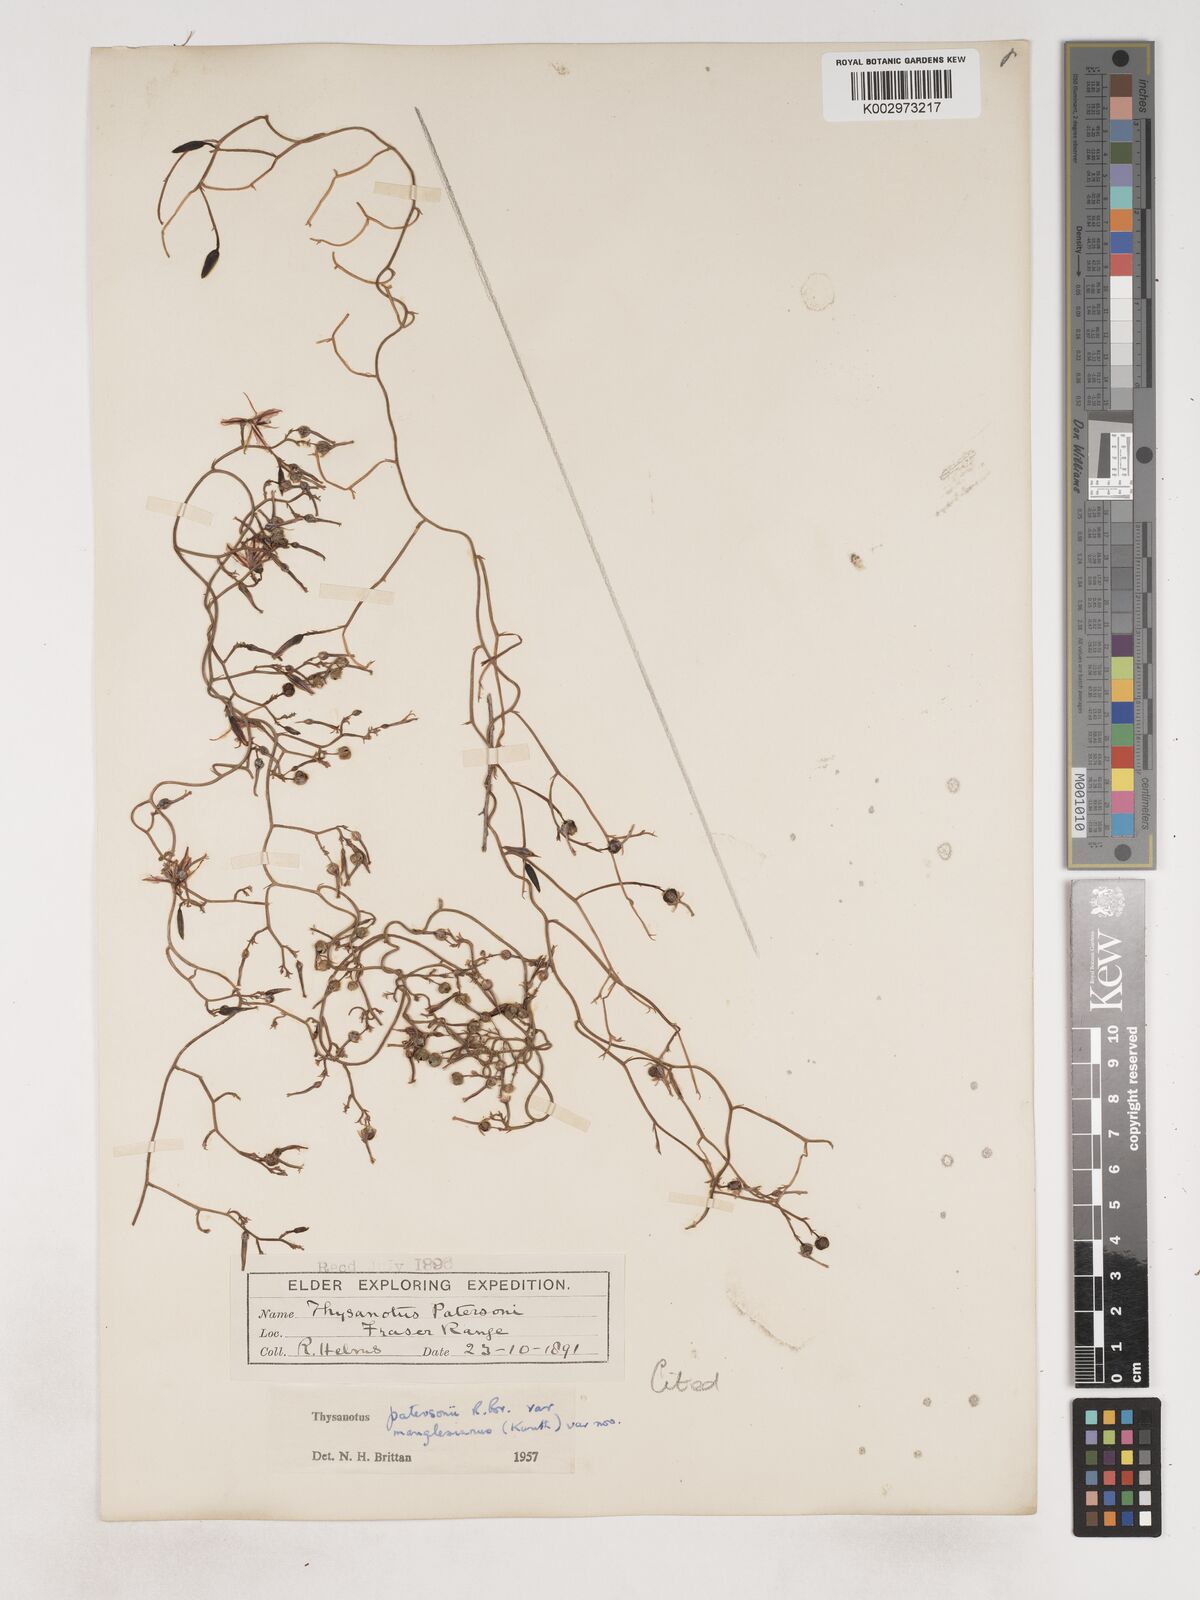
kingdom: Plantae
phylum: Tracheophyta
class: Liliopsida
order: Asparagales
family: Asparagaceae
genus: Thysanotus
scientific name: Thysanotus manglesianus
